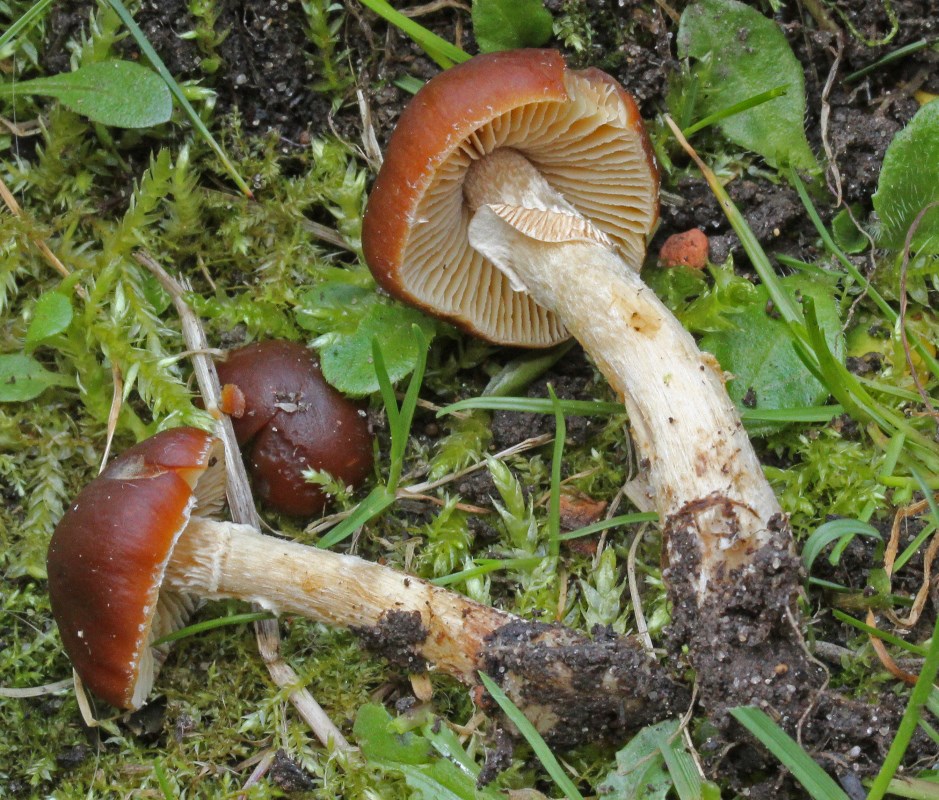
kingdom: Fungi
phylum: Basidiomycota
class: Agaricomycetes
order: Agaricales
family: Bolbitiaceae
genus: Conocybe
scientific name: Conocybe aporos
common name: tidlig dansehat
